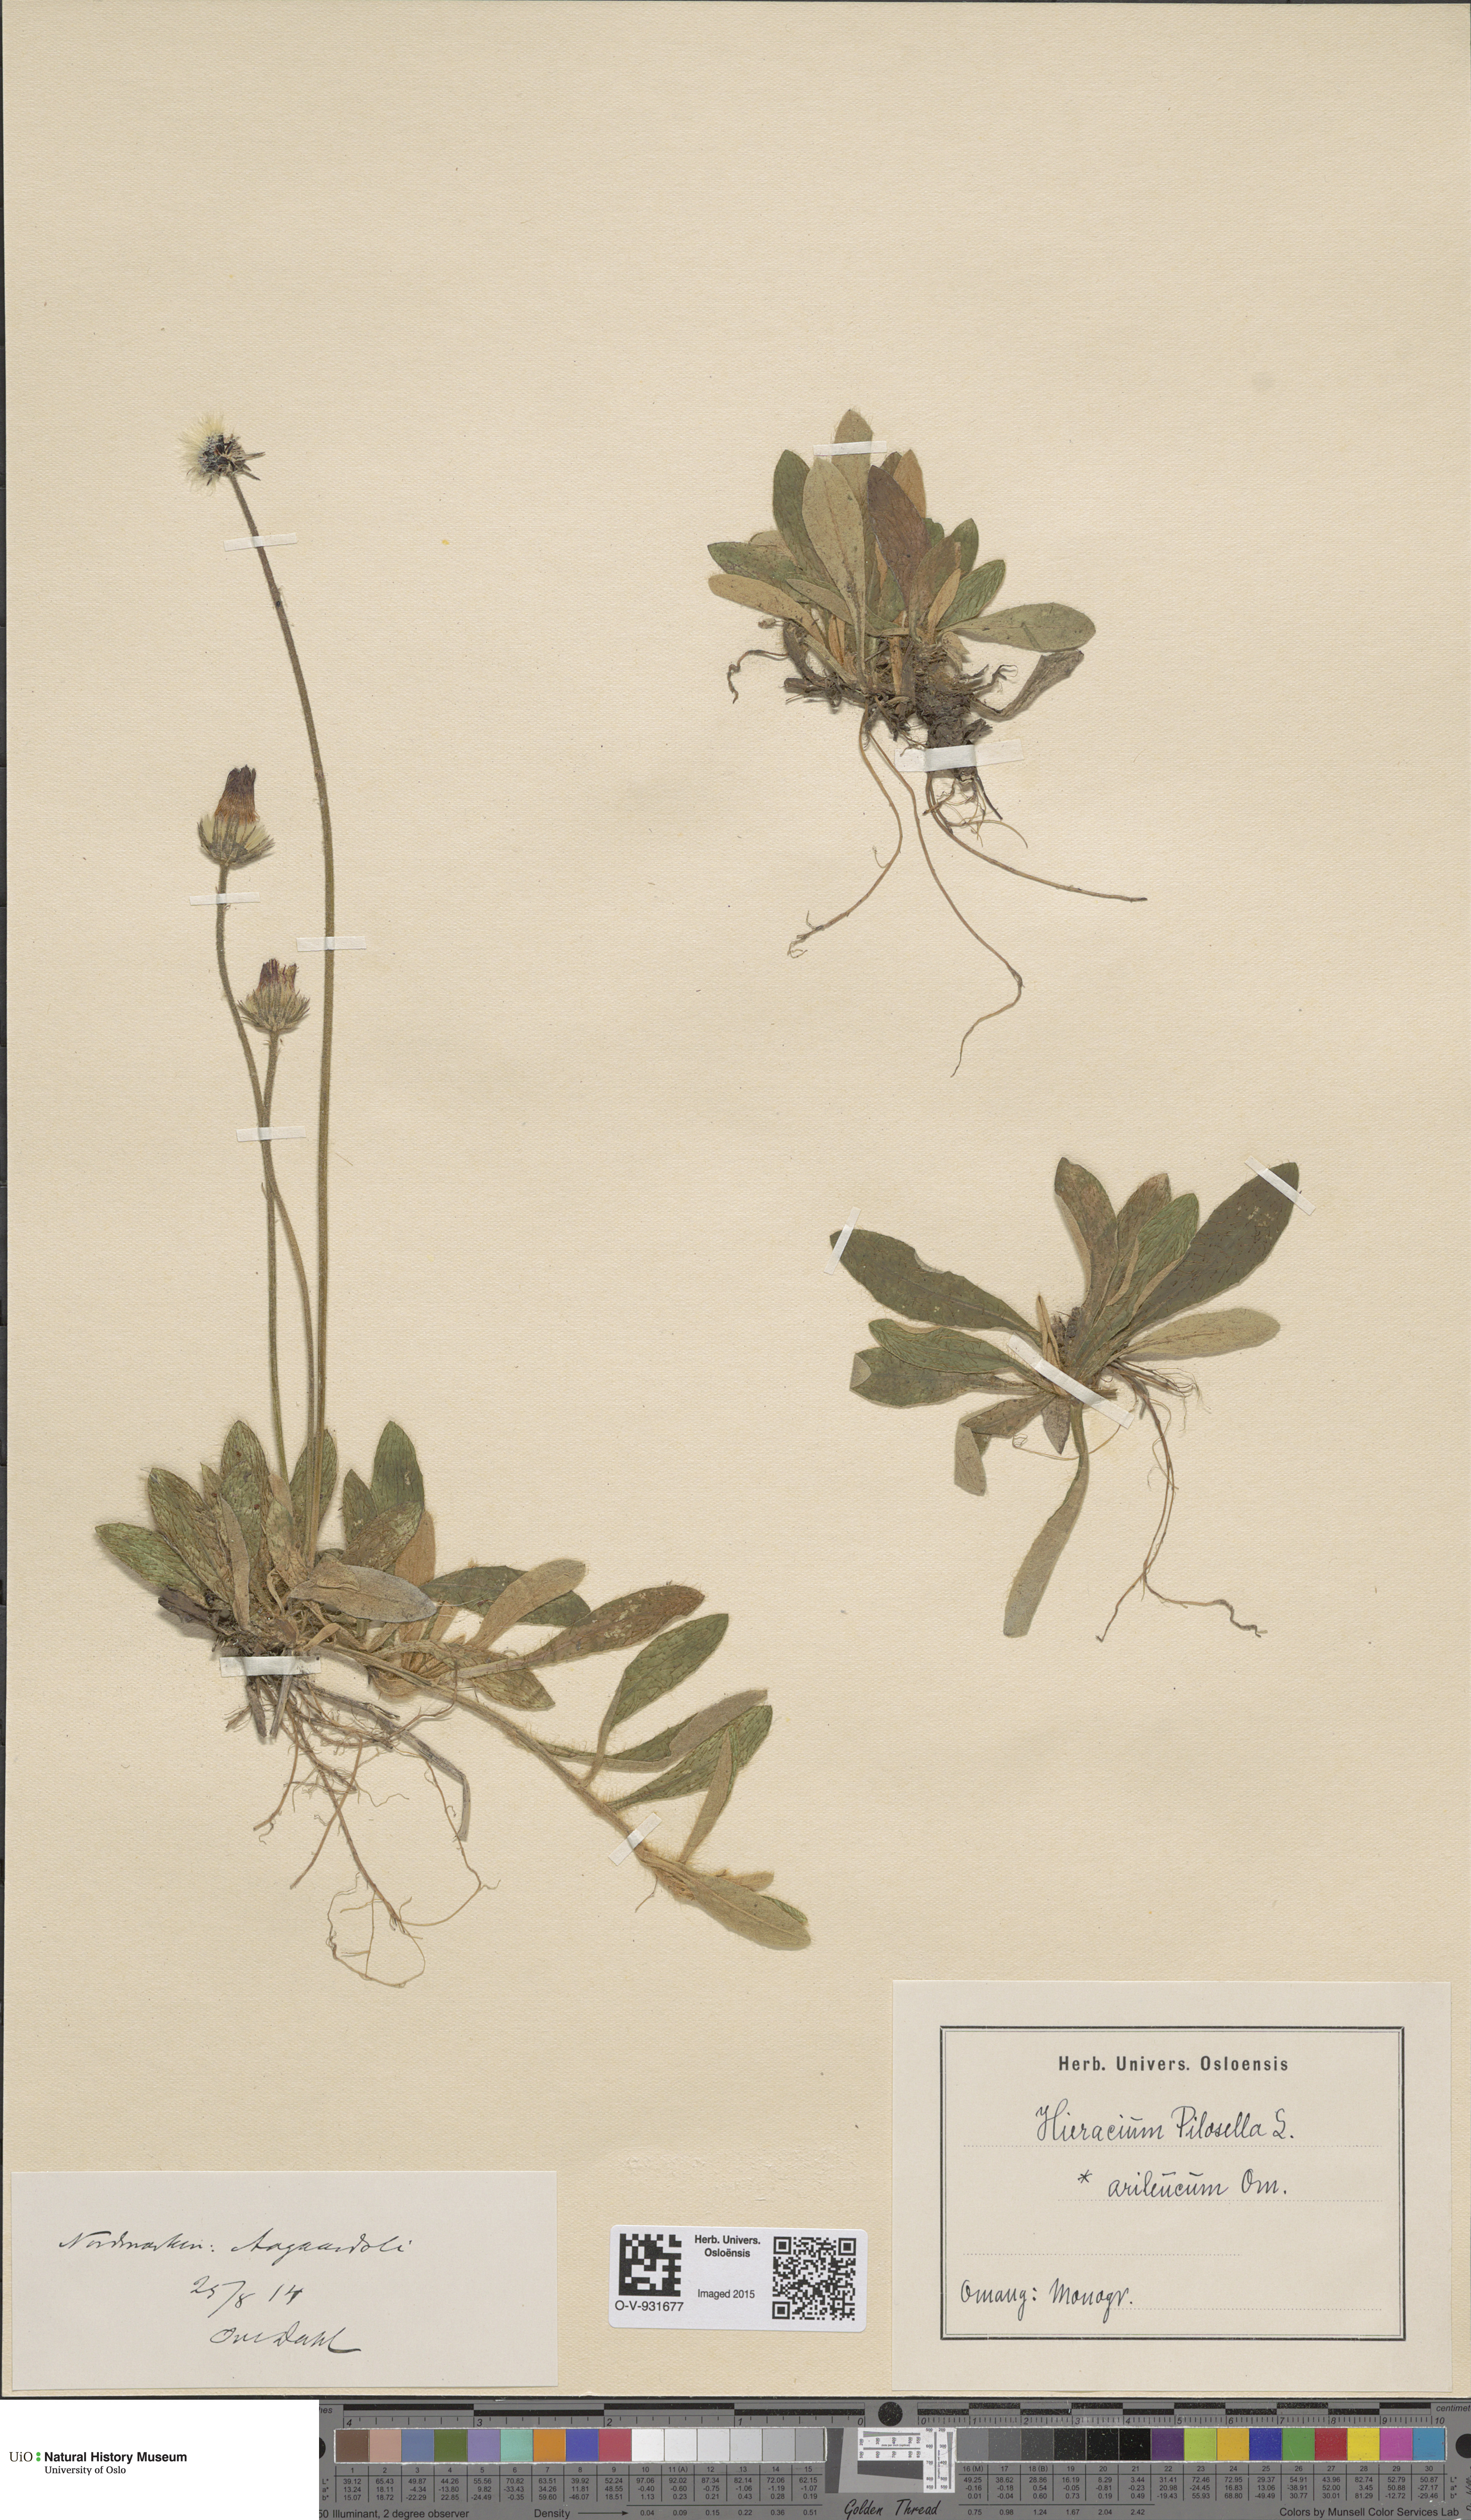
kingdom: Plantae
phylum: Tracheophyta
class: Magnoliopsida
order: Asterales
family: Asteraceae
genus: Pilosella
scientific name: Pilosella officinarum
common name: Mouse-ear hawkweed
